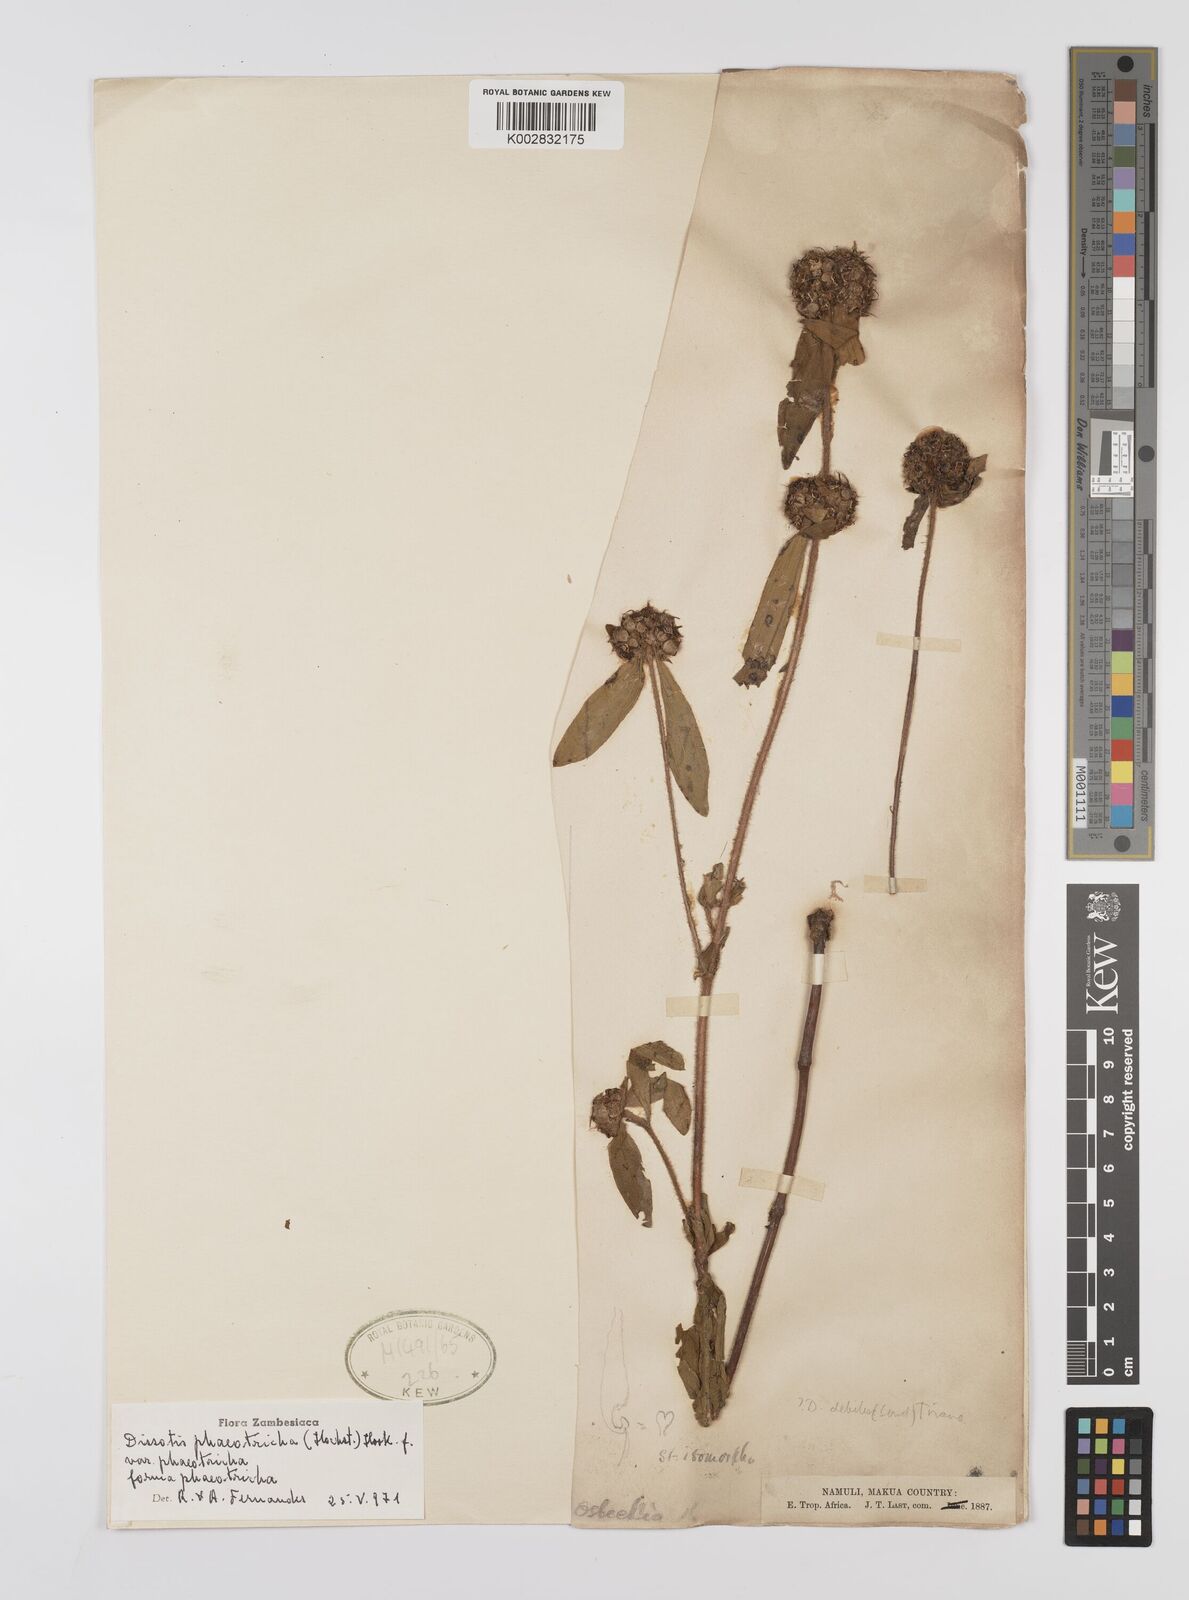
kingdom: Plantae
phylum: Tracheophyta
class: Magnoliopsida
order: Myrtales
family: Melastomataceae
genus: Antherotoma
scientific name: Antherotoma phaeotricha
